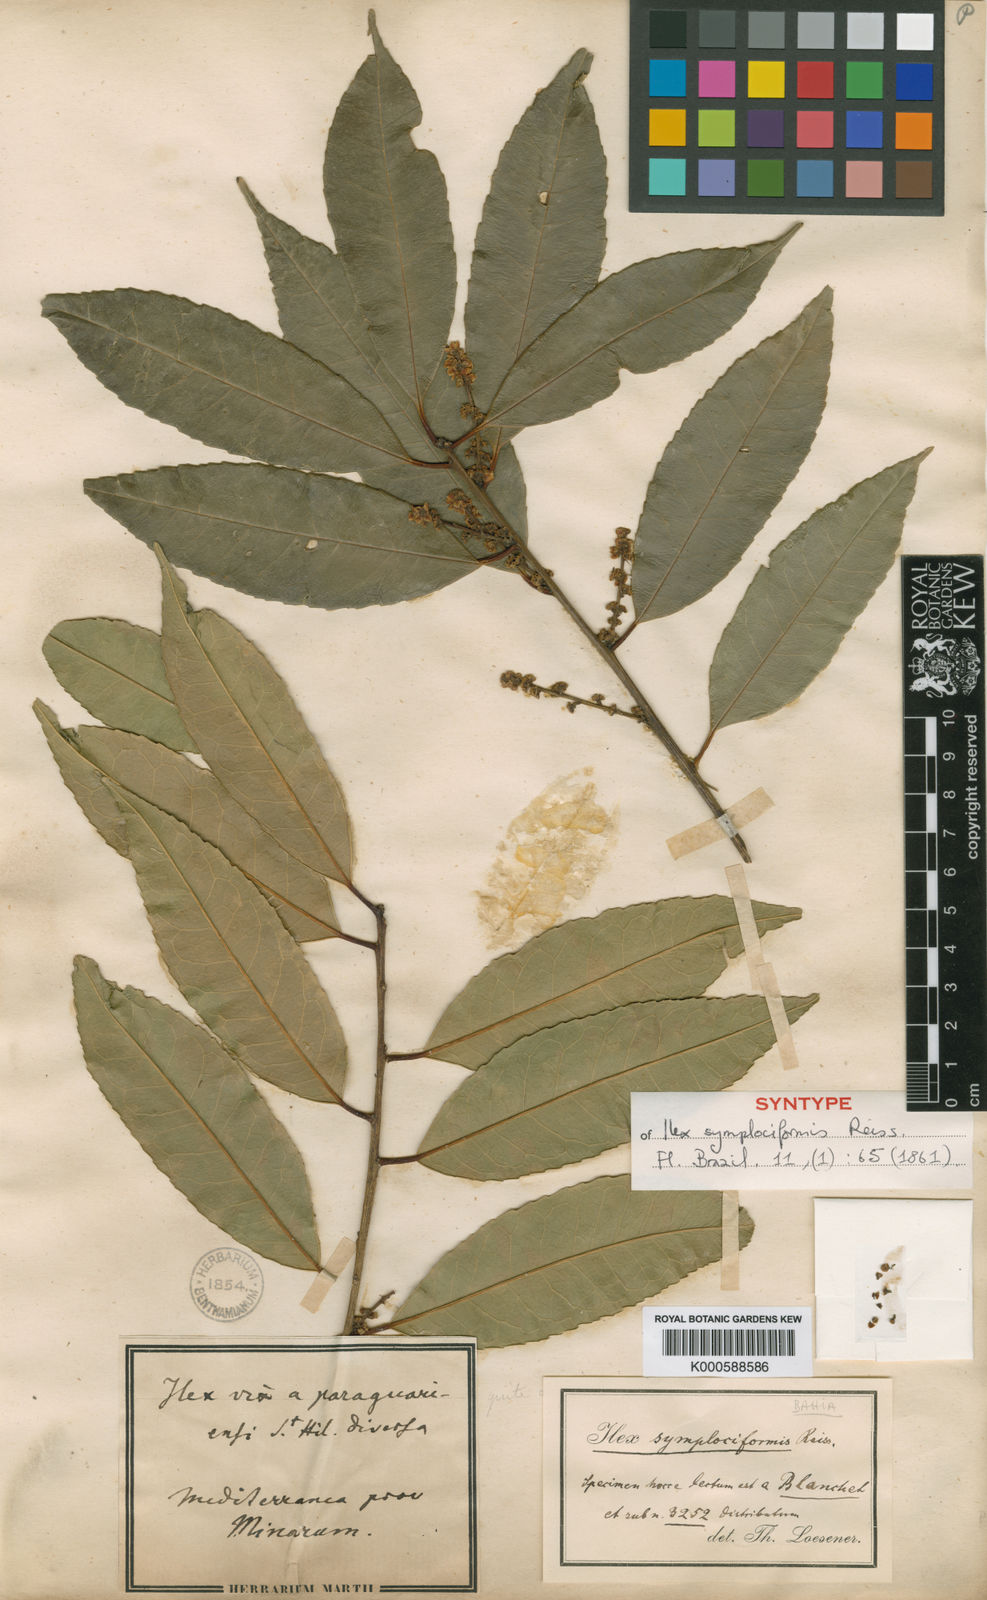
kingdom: Plantae
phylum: Tracheophyta
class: Magnoliopsida
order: Aquifoliales
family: Aquifoliaceae
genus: Ilex
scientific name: Ilex conocarpa
